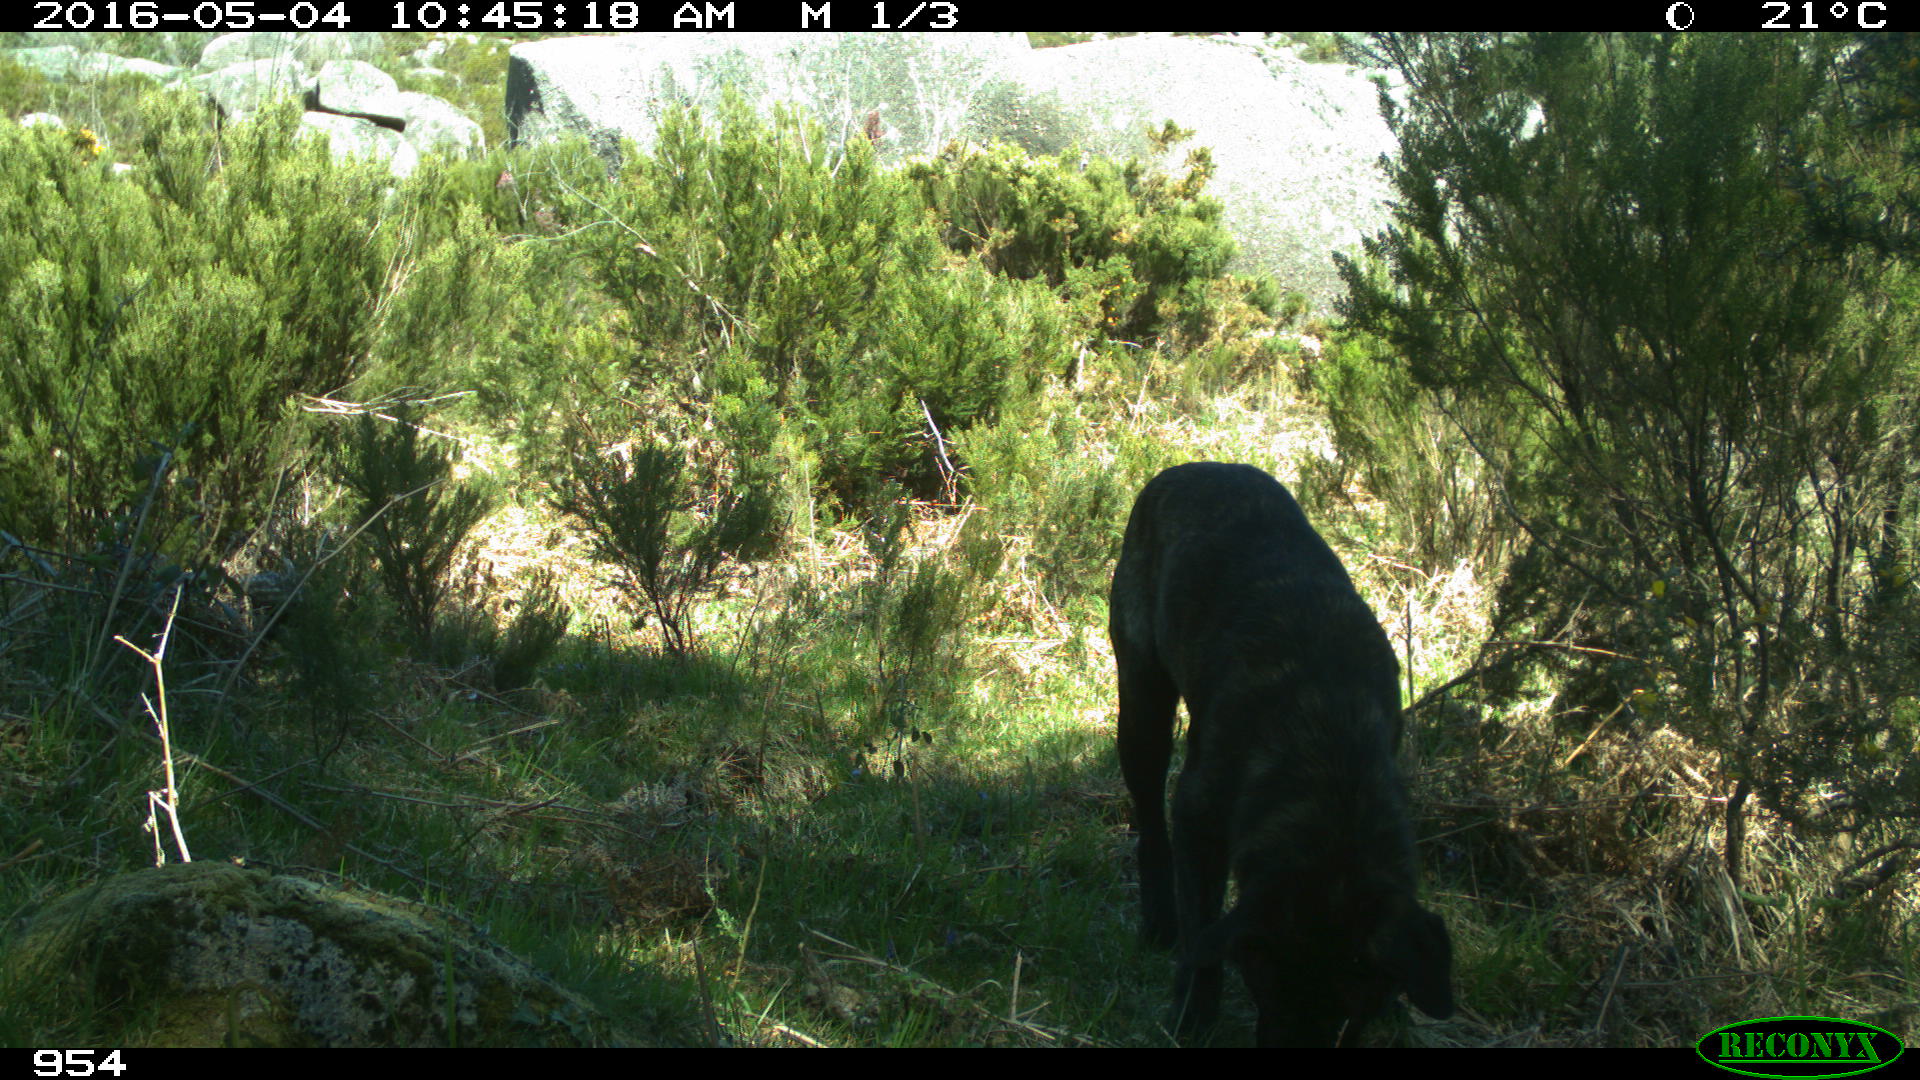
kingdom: Animalia
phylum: Chordata
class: Mammalia
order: Carnivora
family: Canidae
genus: Canis
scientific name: Canis lupus
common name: Gray wolf
